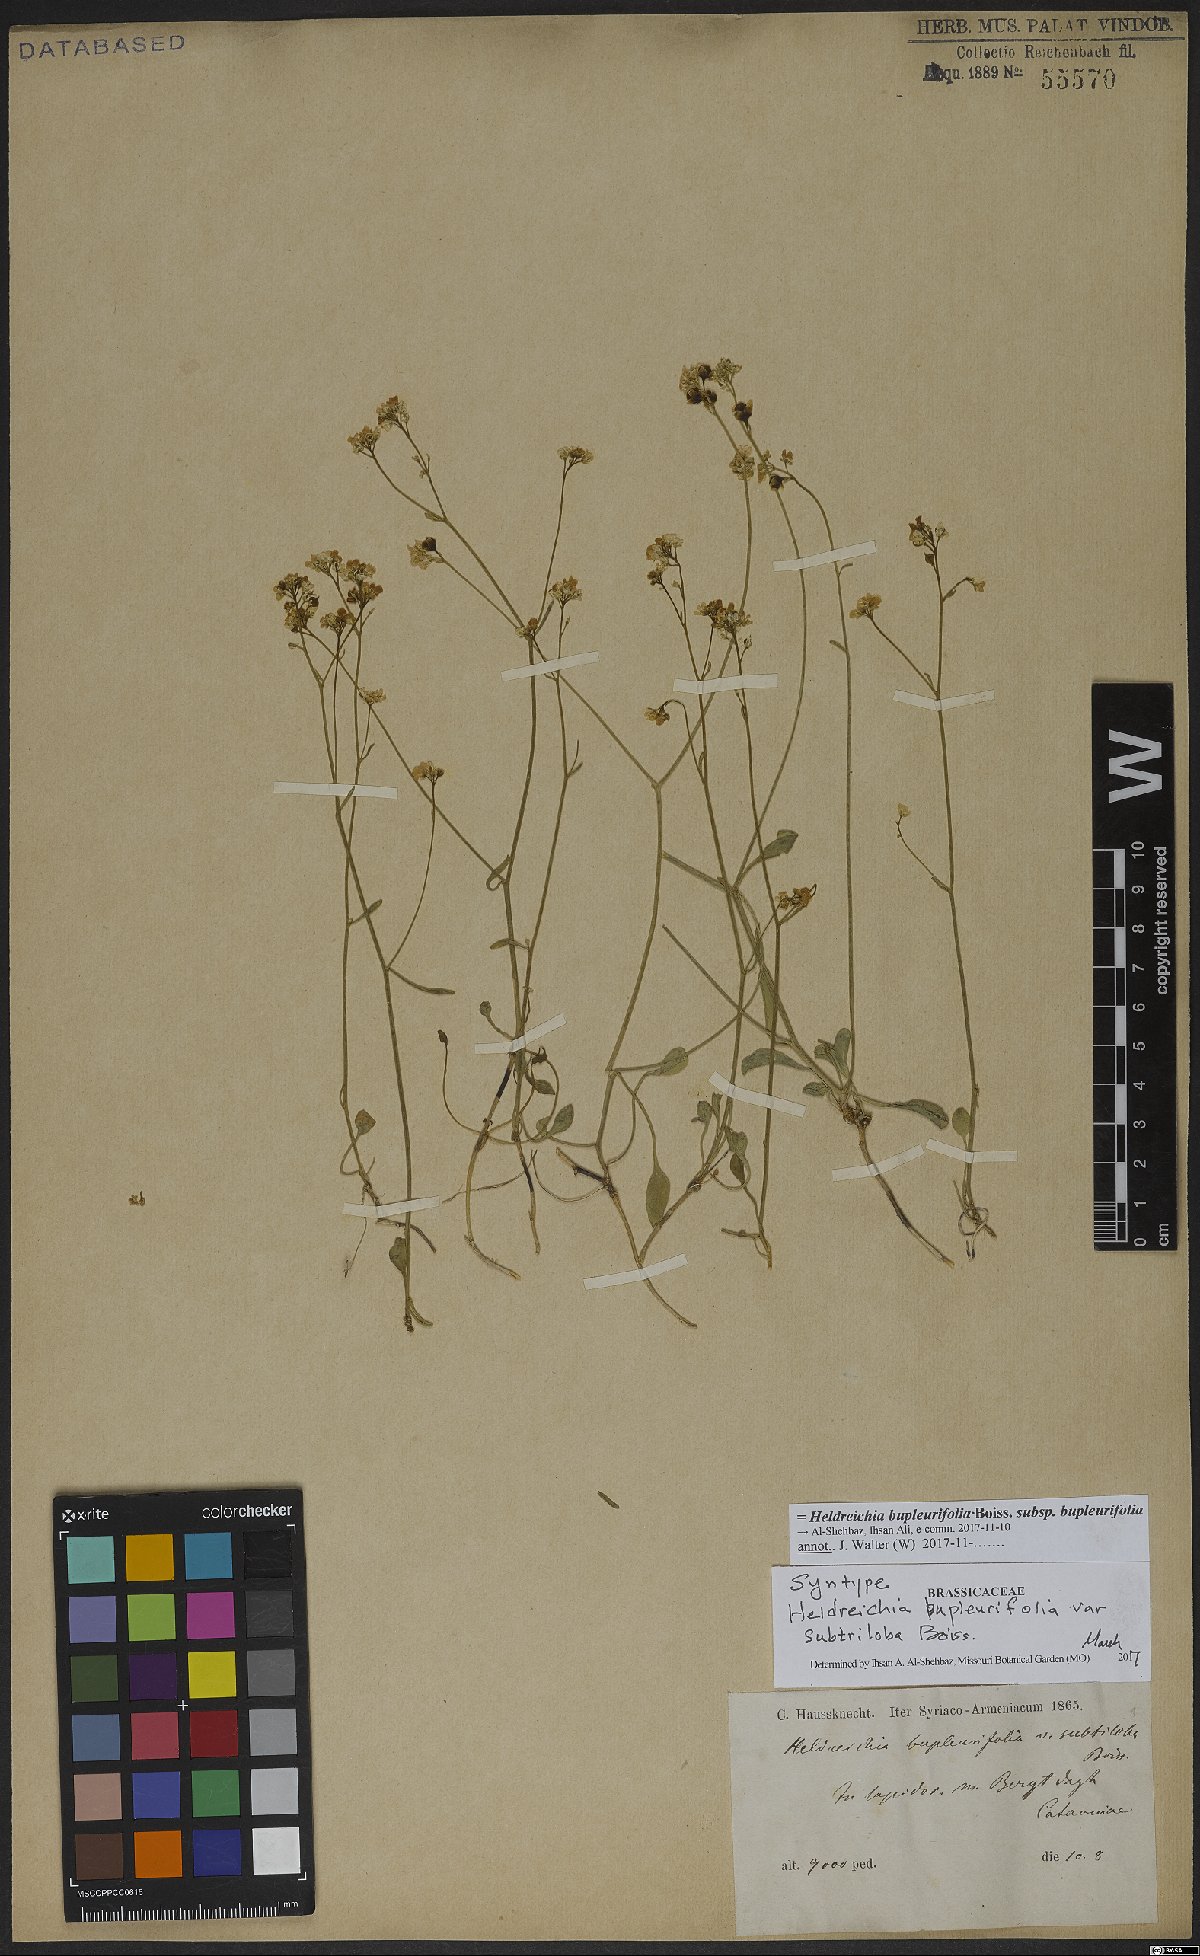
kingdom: Plantae
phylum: Tracheophyta
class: Magnoliopsida
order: Brassicales
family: Brassicaceae
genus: Heldreichia
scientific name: Heldreichia bupleurifolia
